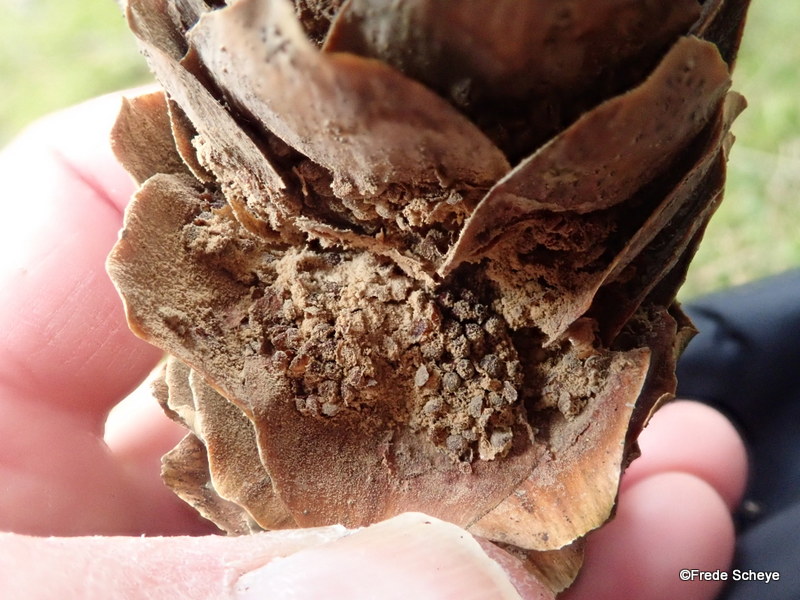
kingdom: Fungi
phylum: Basidiomycota
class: Pucciniomycetes
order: Pucciniales
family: Pucciniastraceae
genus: Thekopsora
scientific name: Thekopsora areolata
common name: grankogle-nålerust
